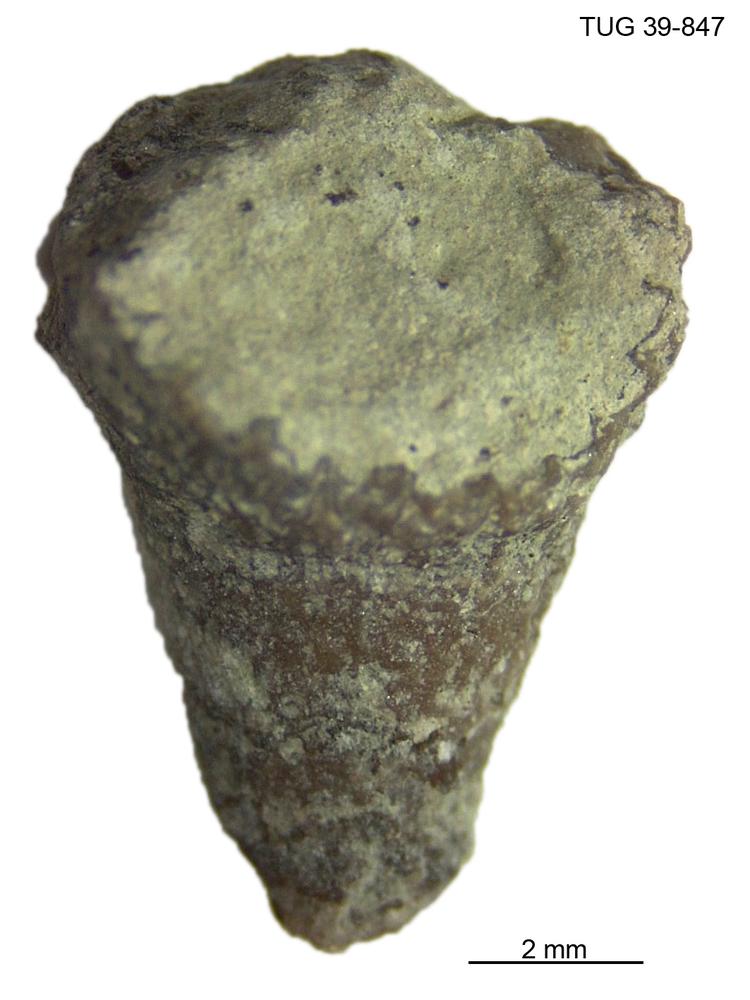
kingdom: Animalia
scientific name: Animalia
